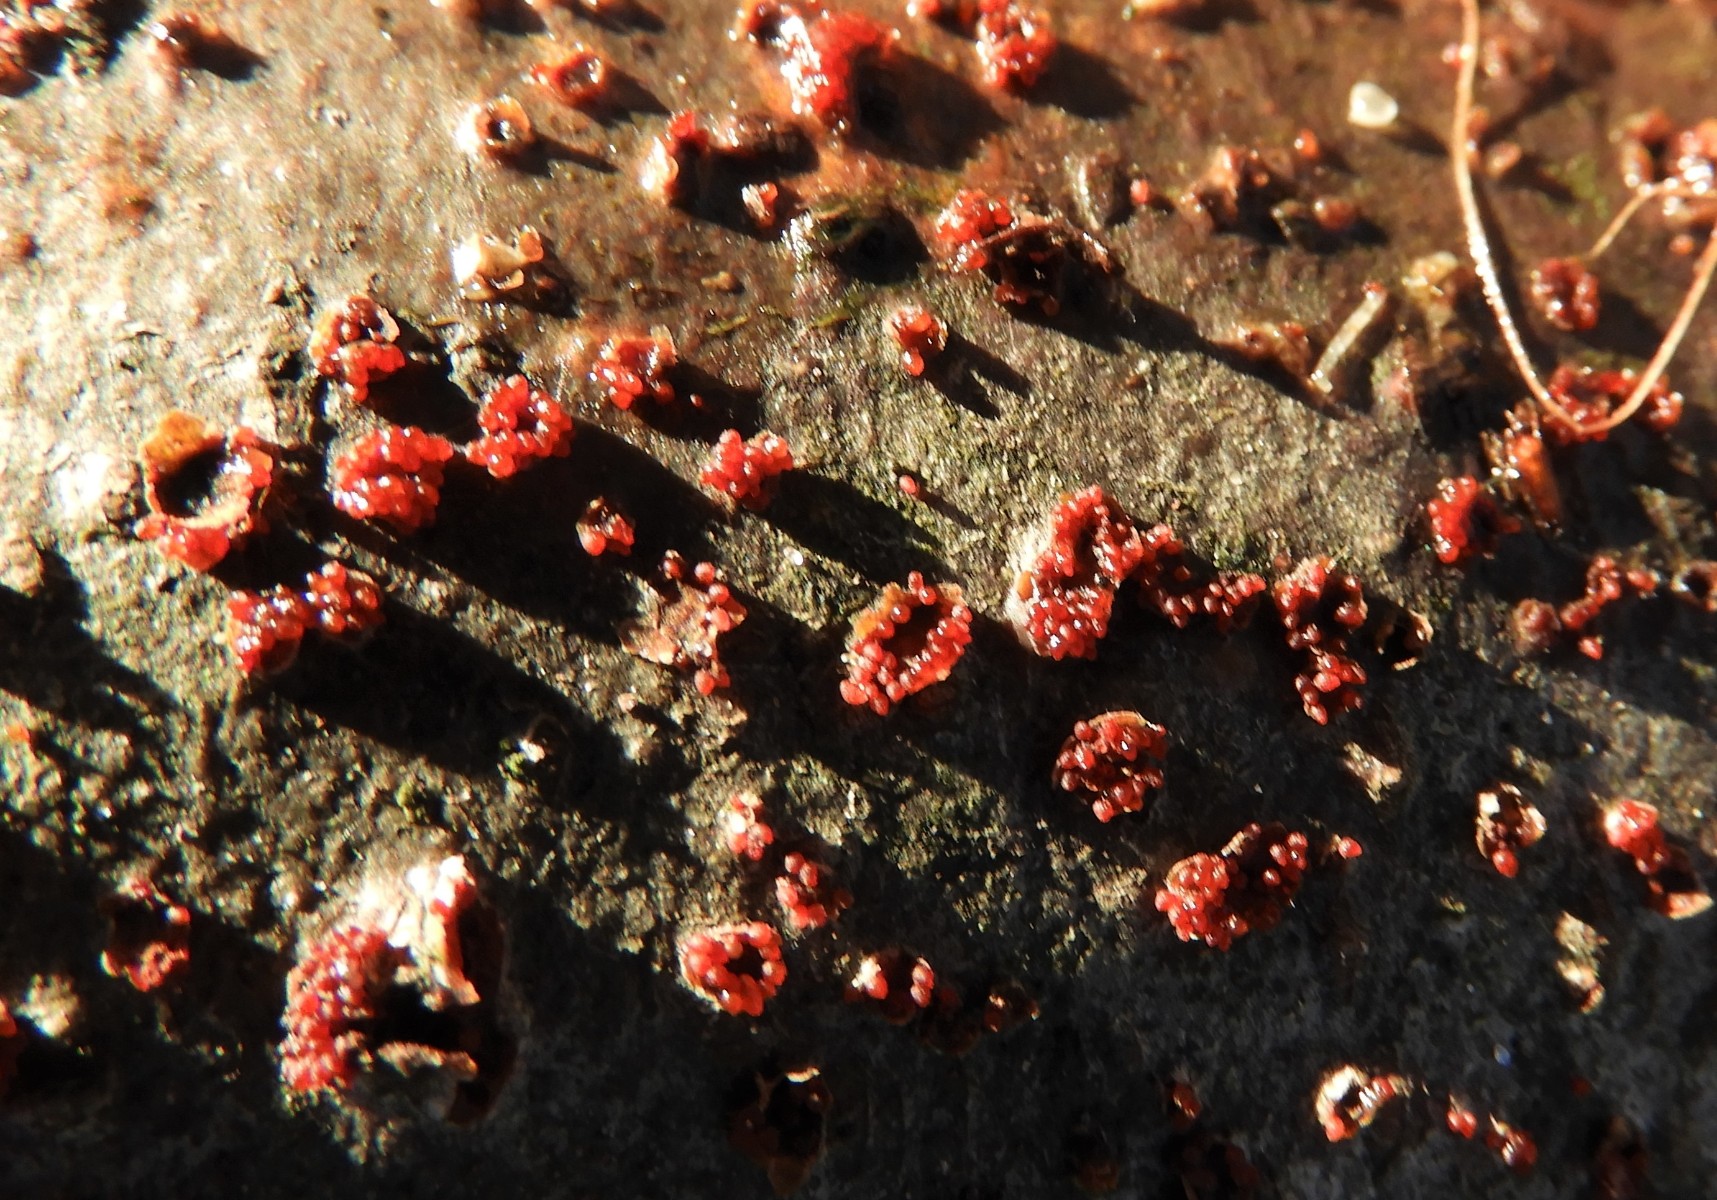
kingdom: Fungi
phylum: Ascomycota
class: Sordariomycetes
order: Hypocreales
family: Nectriaceae
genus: Neonectria
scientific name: Neonectria coccinea
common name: bøgebark-cinnobersvamp
